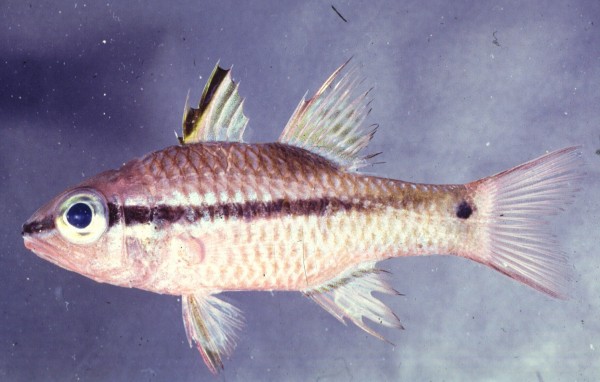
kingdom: Animalia
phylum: Chordata
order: Perciformes
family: Apogonidae
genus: Pristiapogon
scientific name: Pristiapogon kallopterus
